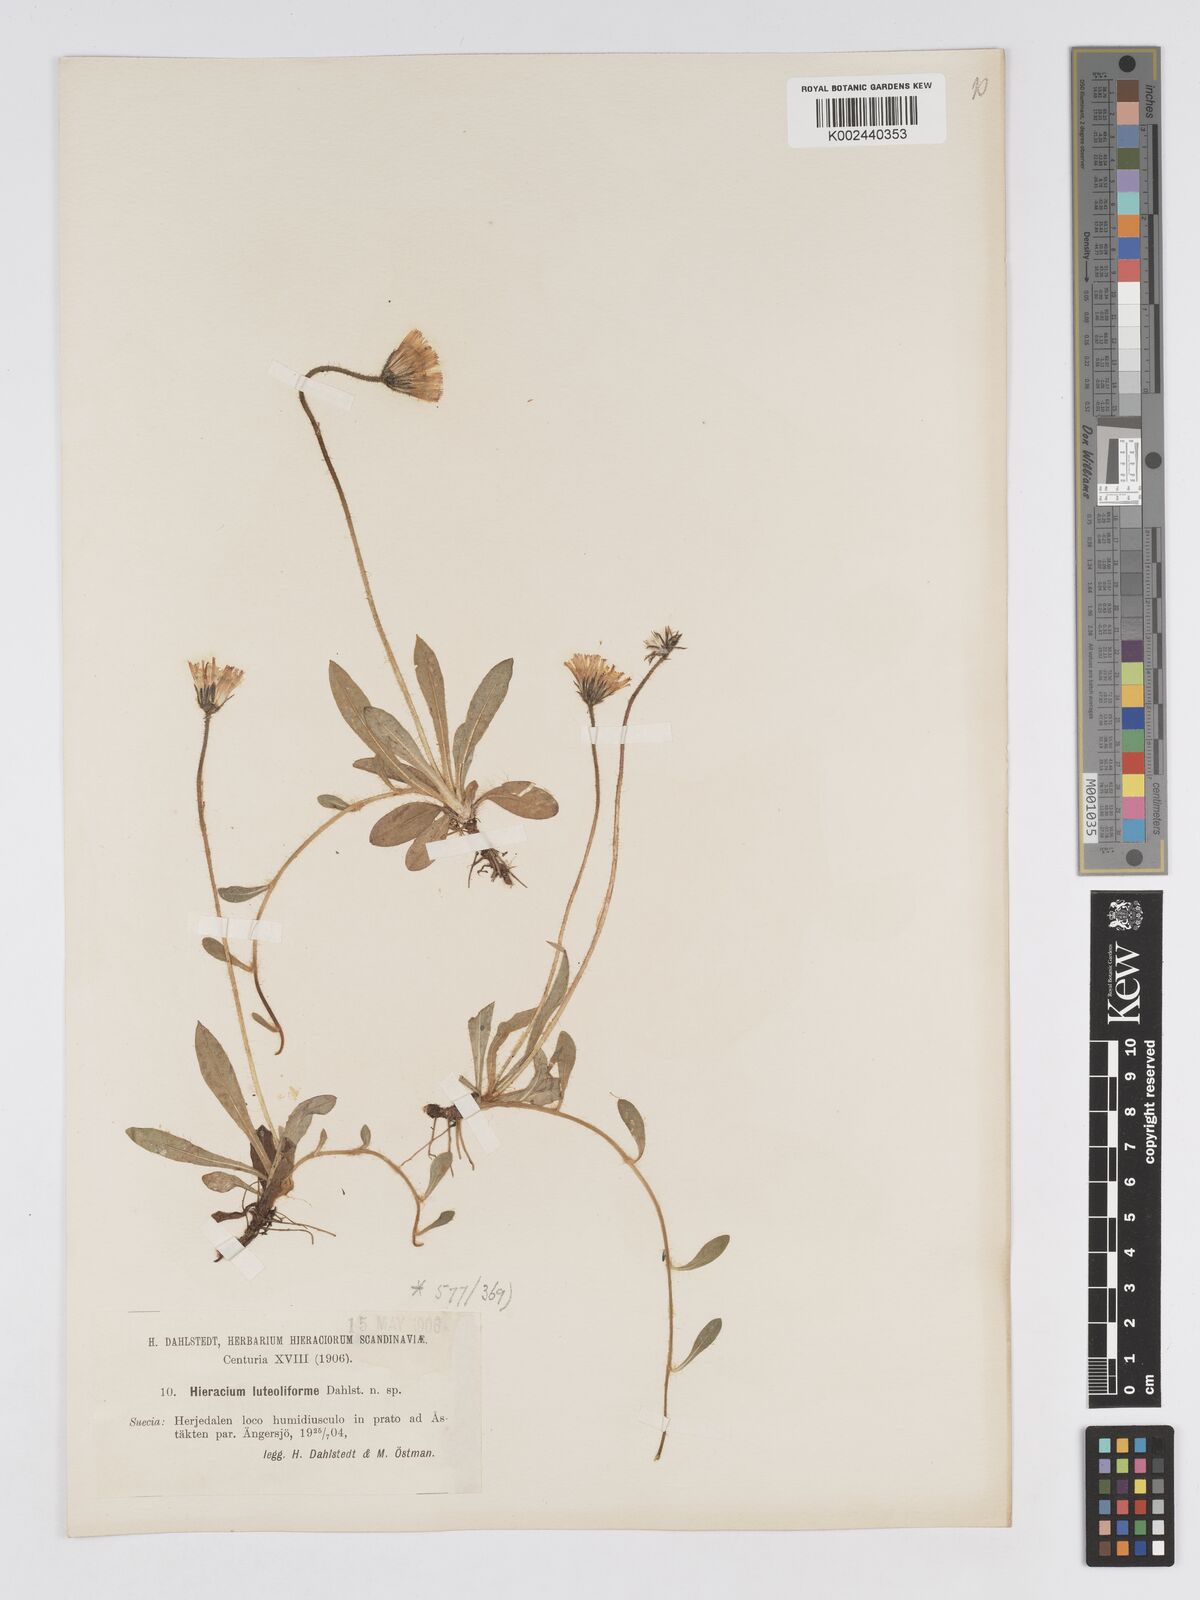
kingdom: Plantae
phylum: Tracheophyta
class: Magnoliopsida
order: Asterales
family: Asteraceae
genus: Pilosella
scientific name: Pilosella officinarum
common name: Mouse-ear hawkweed
